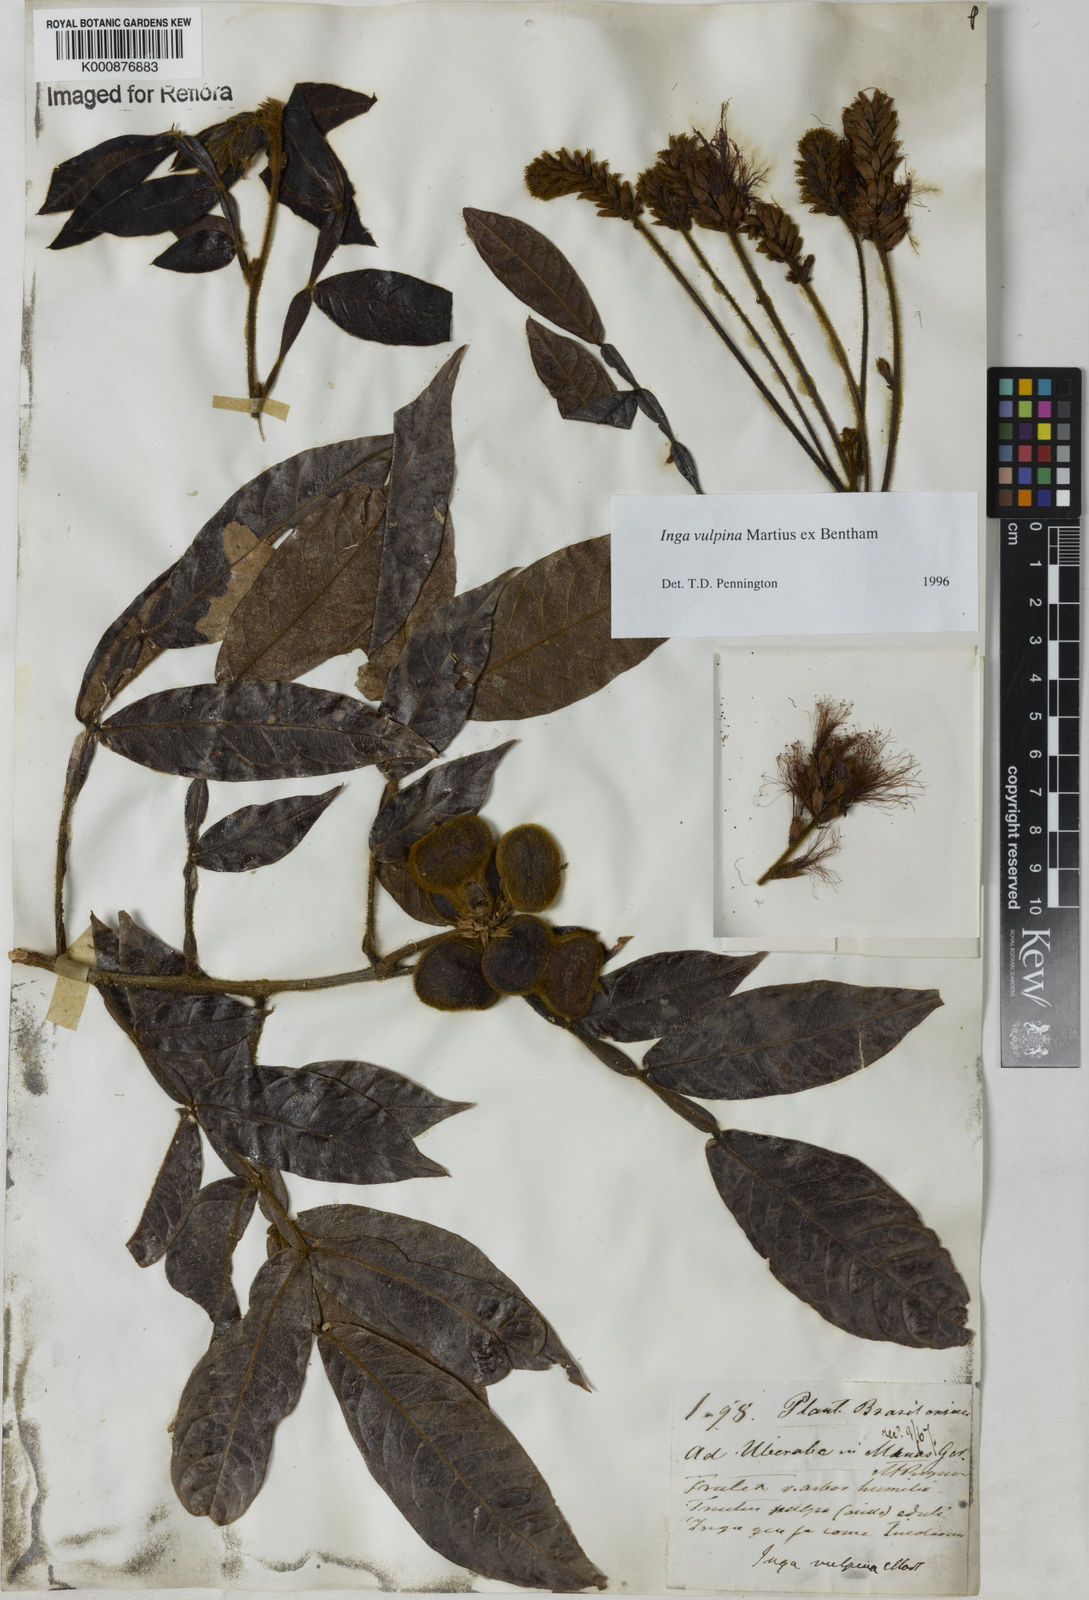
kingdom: Plantae
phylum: Tracheophyta
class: Magnoliopsida
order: Fabales
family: Fabaceae
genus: Inga
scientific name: Inga vulpina
